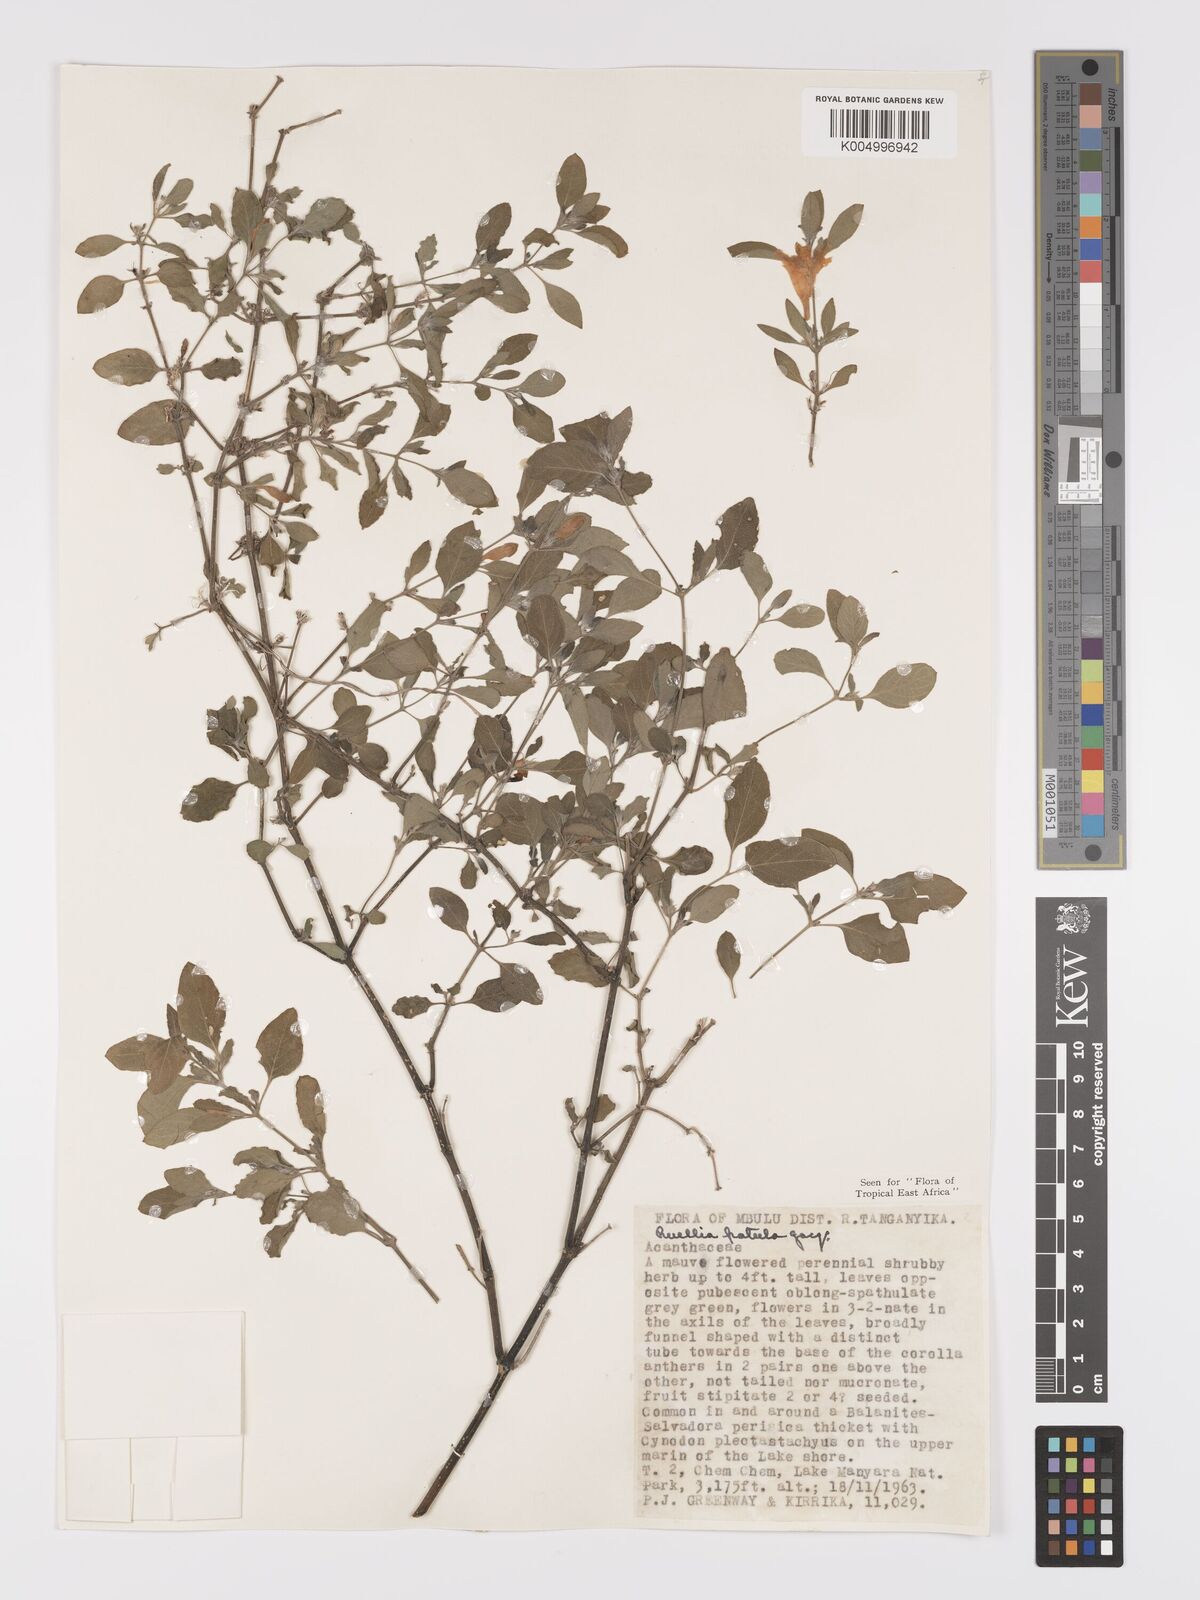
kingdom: Plantae
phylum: Tracheophyta
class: Magnoliopsida
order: Lamiales
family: Acanthaceae
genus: Ruellia
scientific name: Ruellia patula
